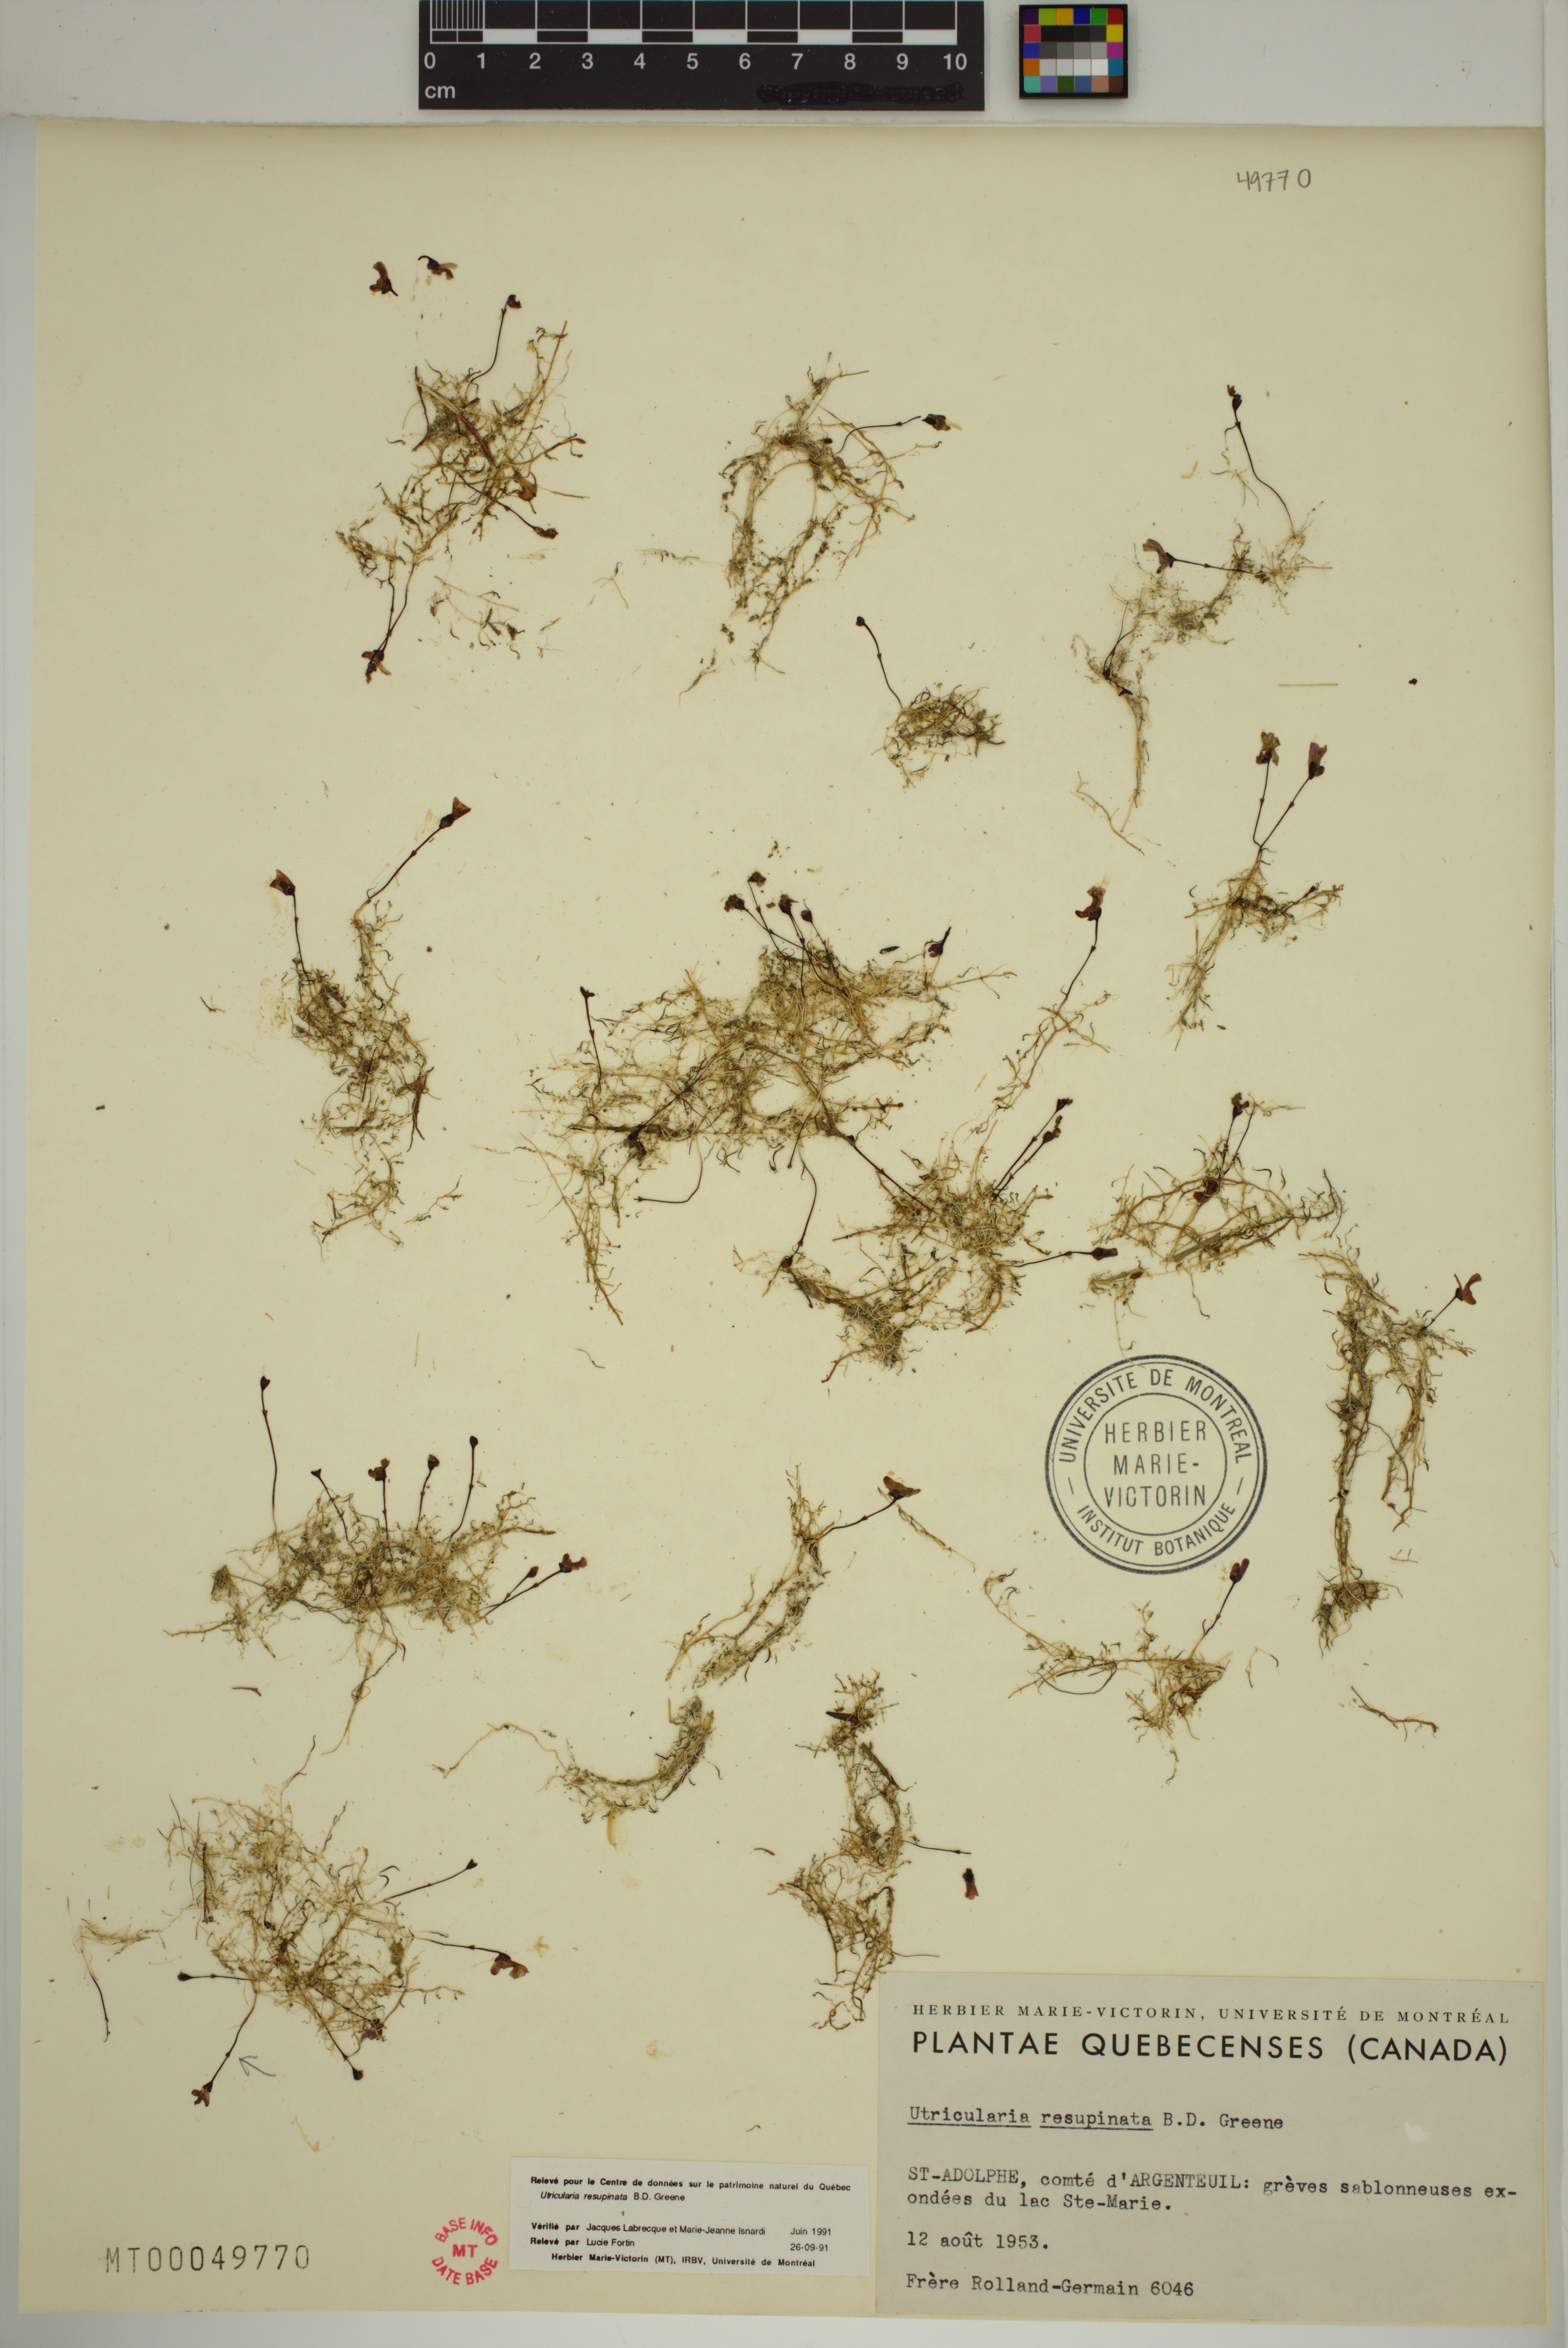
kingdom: Plantae
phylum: Tracheophyta
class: Magnoliopsida
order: Lamiales
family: Lentibulariaceae
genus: Utricularia
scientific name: Utricularia resupinata
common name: Northeastern bladderwort
